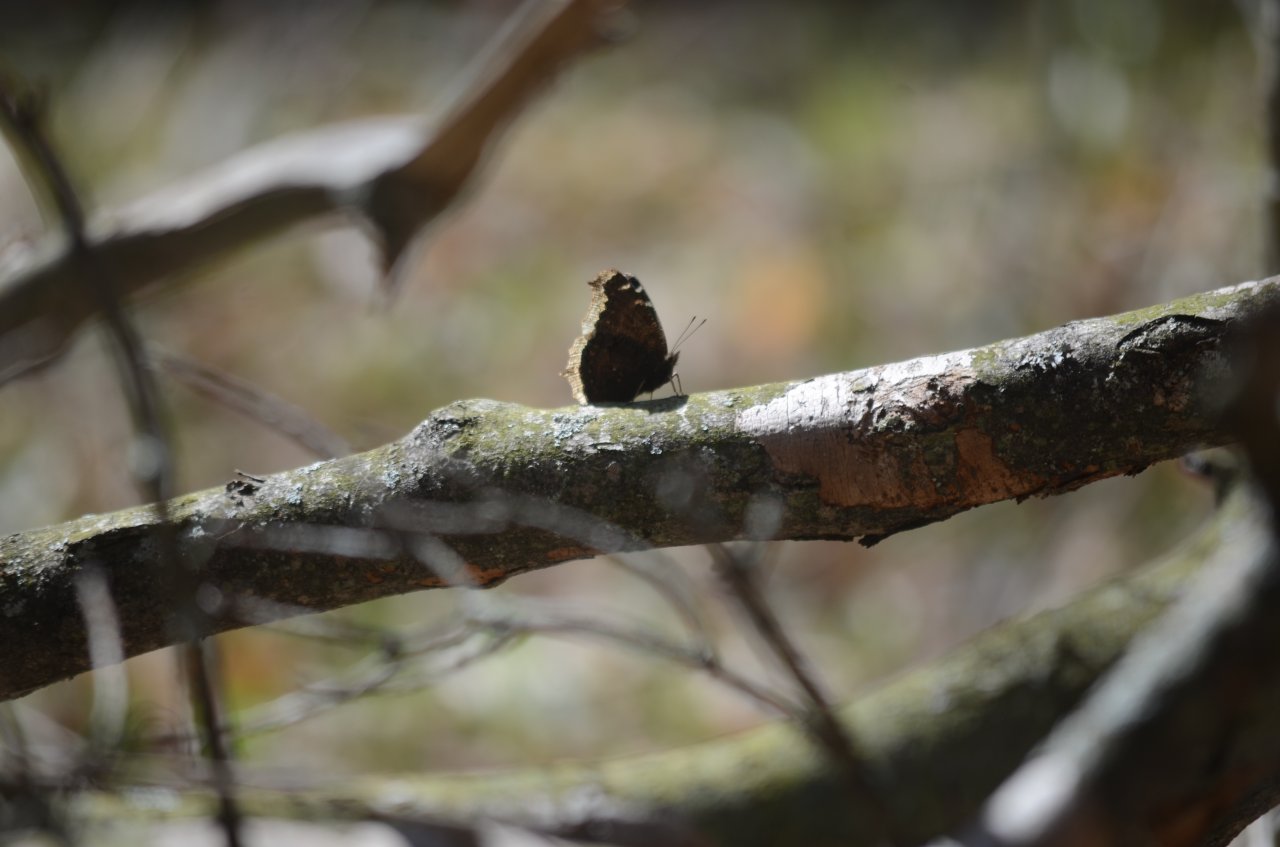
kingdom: Animalia
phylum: Arthropoda
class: Insecta
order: Lepidoptera
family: Nymphalidae
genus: Nymphalis
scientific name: Nymphalis antiopa
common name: Mourning Cloak
